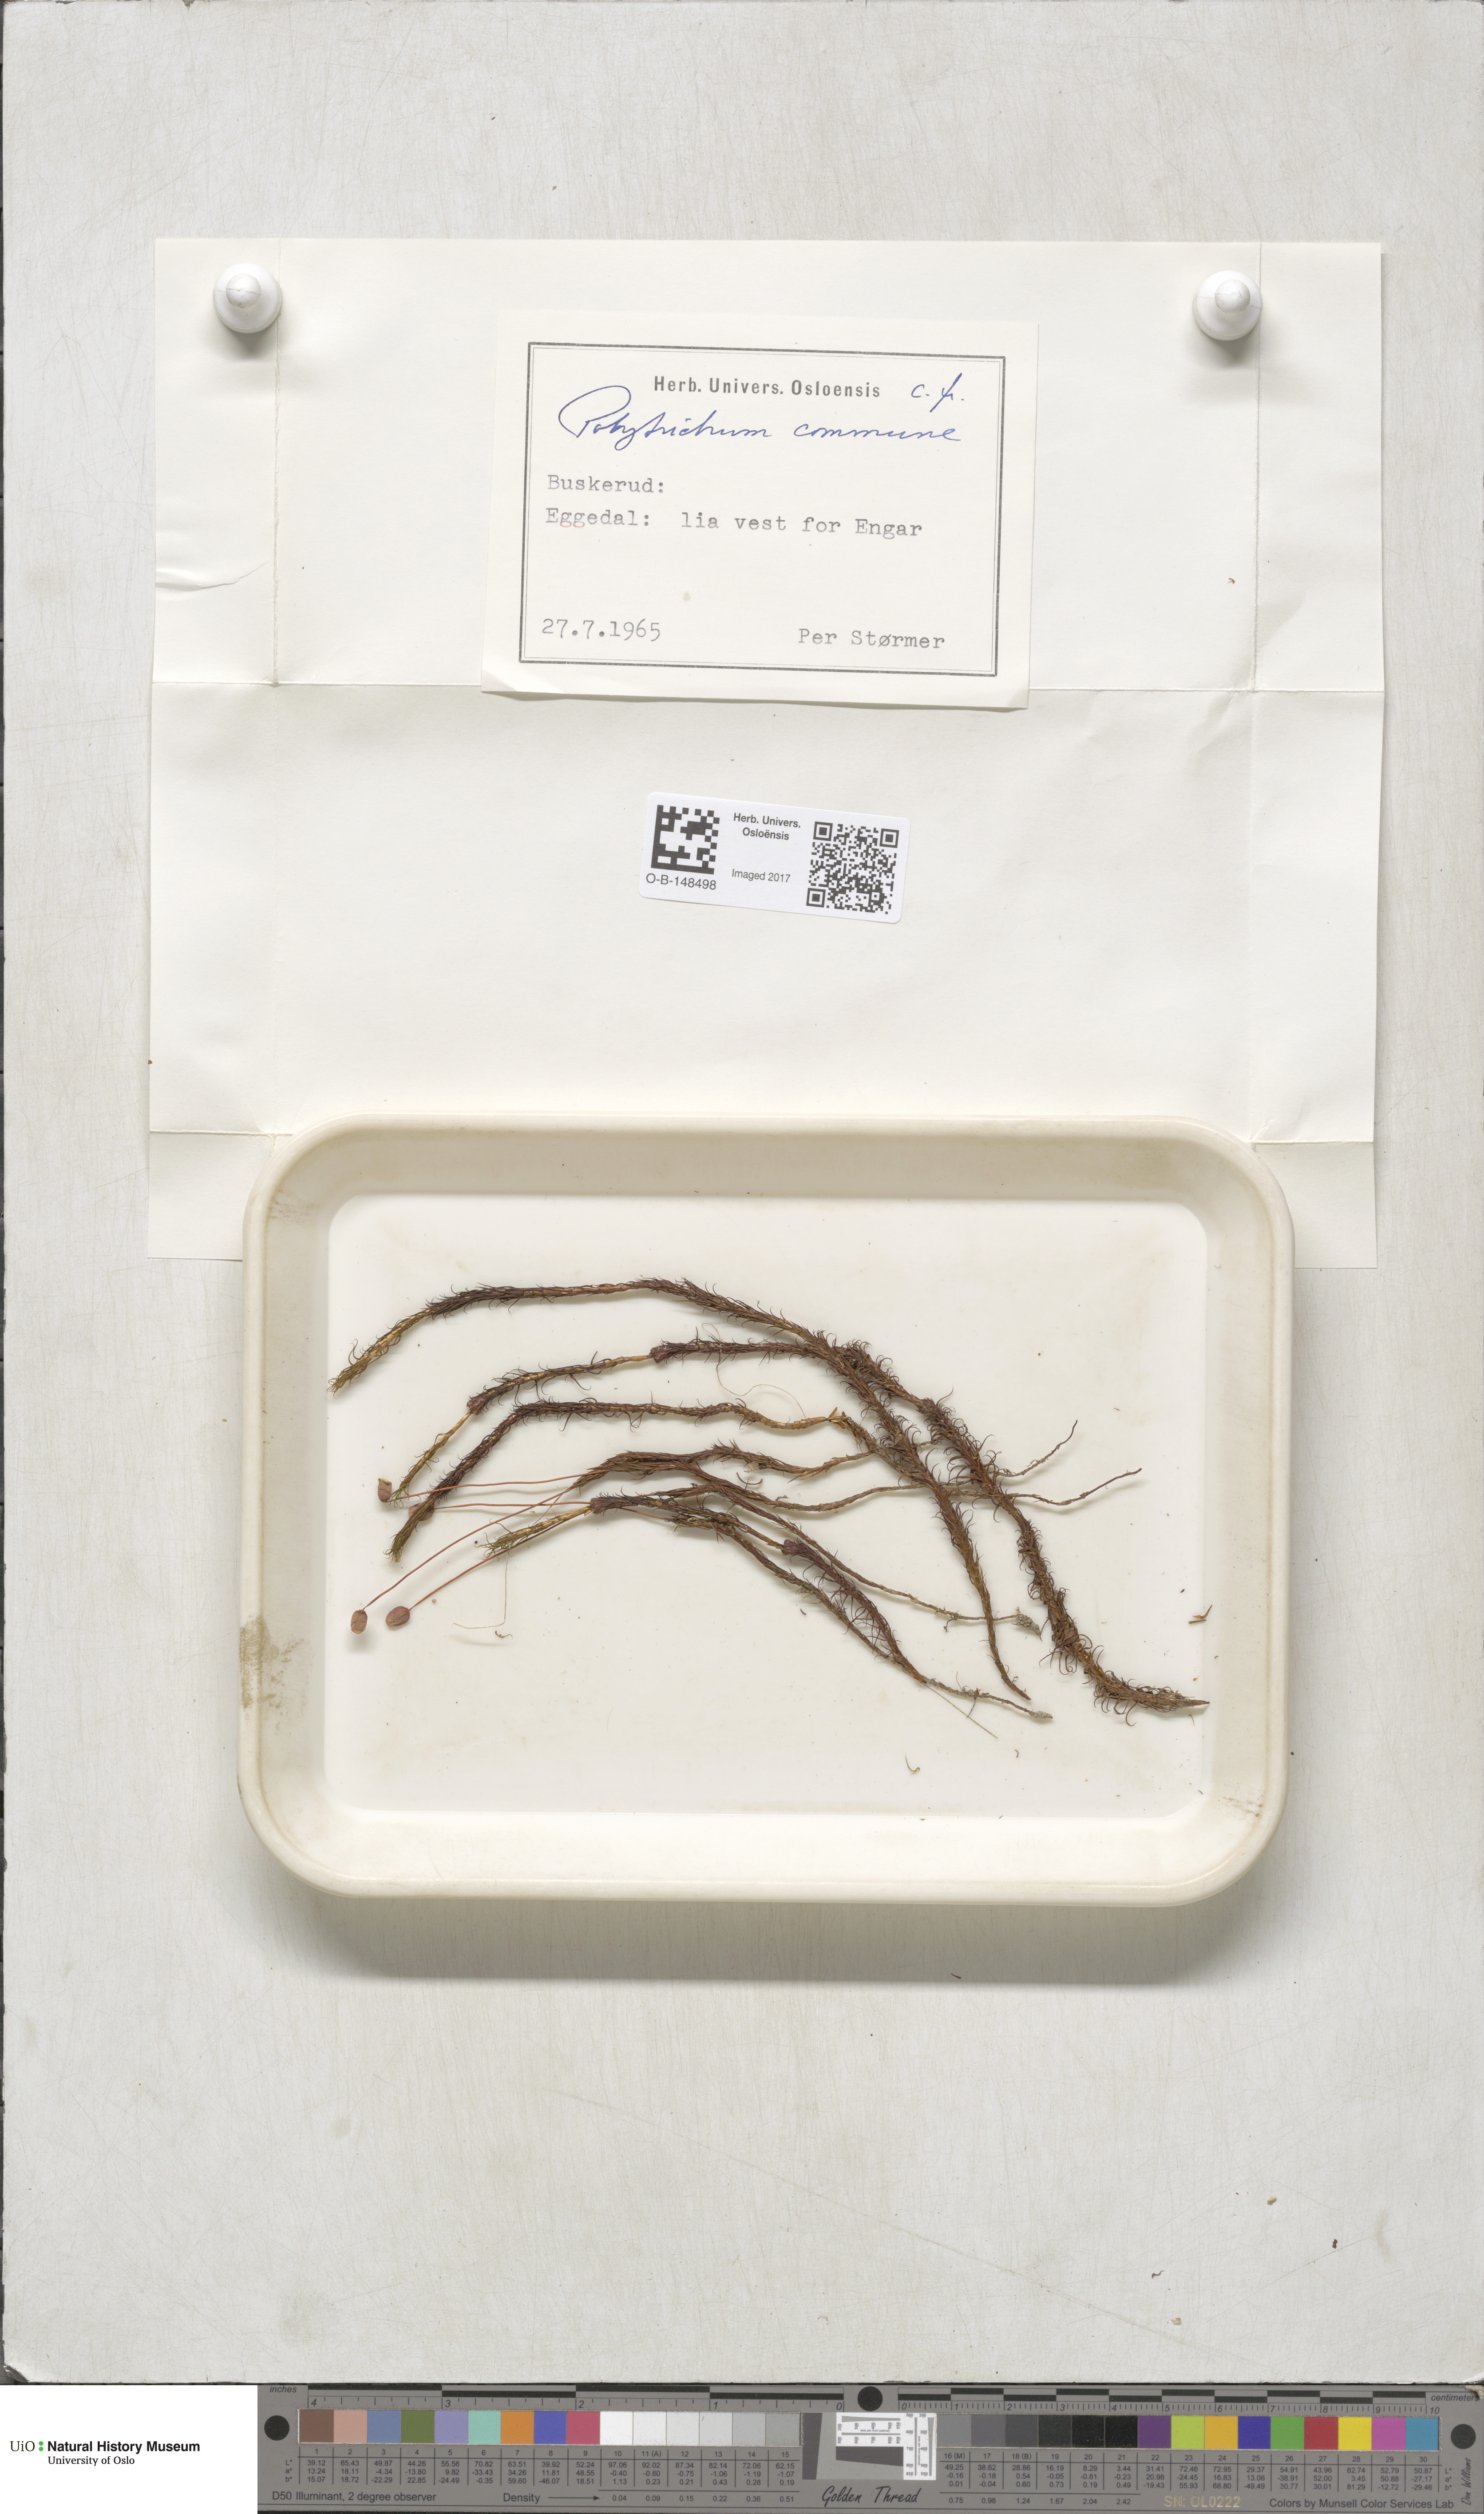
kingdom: Plantae
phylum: Bryophyta
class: Polytrichopsida
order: Polytrichales
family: Polytrichaceae
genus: Polytrichum
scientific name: Polytrichum commune
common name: Common haircap
